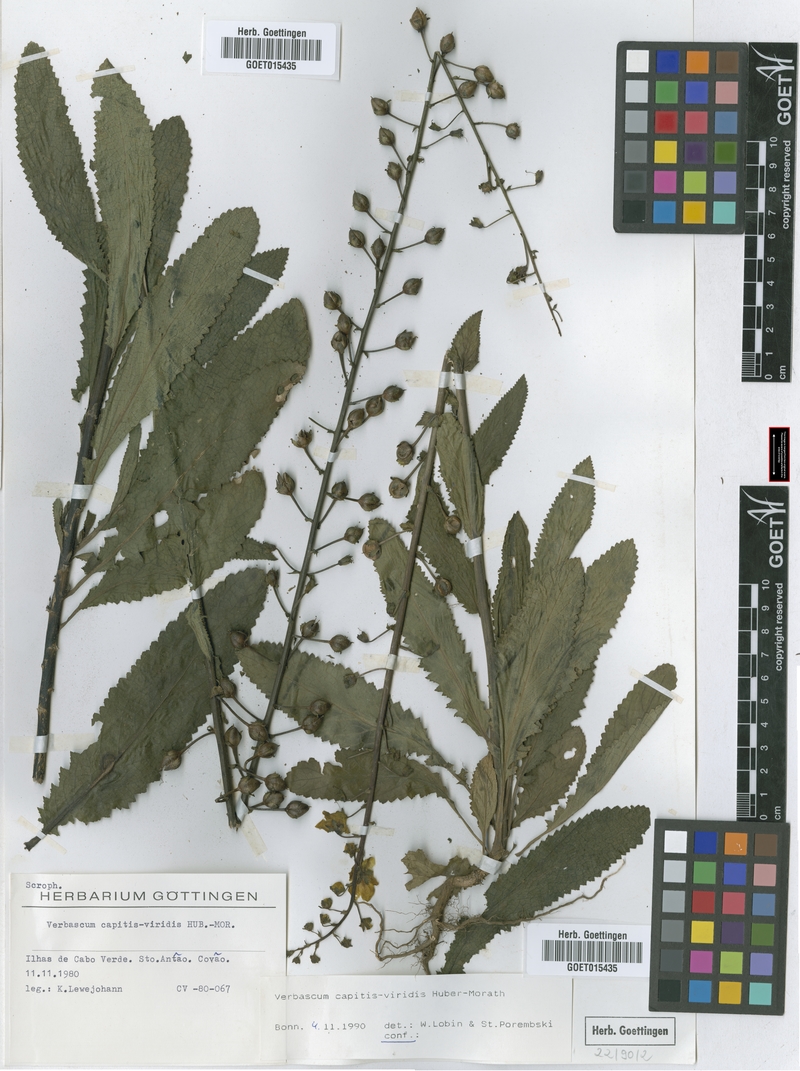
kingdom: Plantae
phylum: Tracheophyta
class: Magnoliopsida
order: Lamiales
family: Scrophulariaceae
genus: Verbascum
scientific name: Verbascum capitis-viridis
